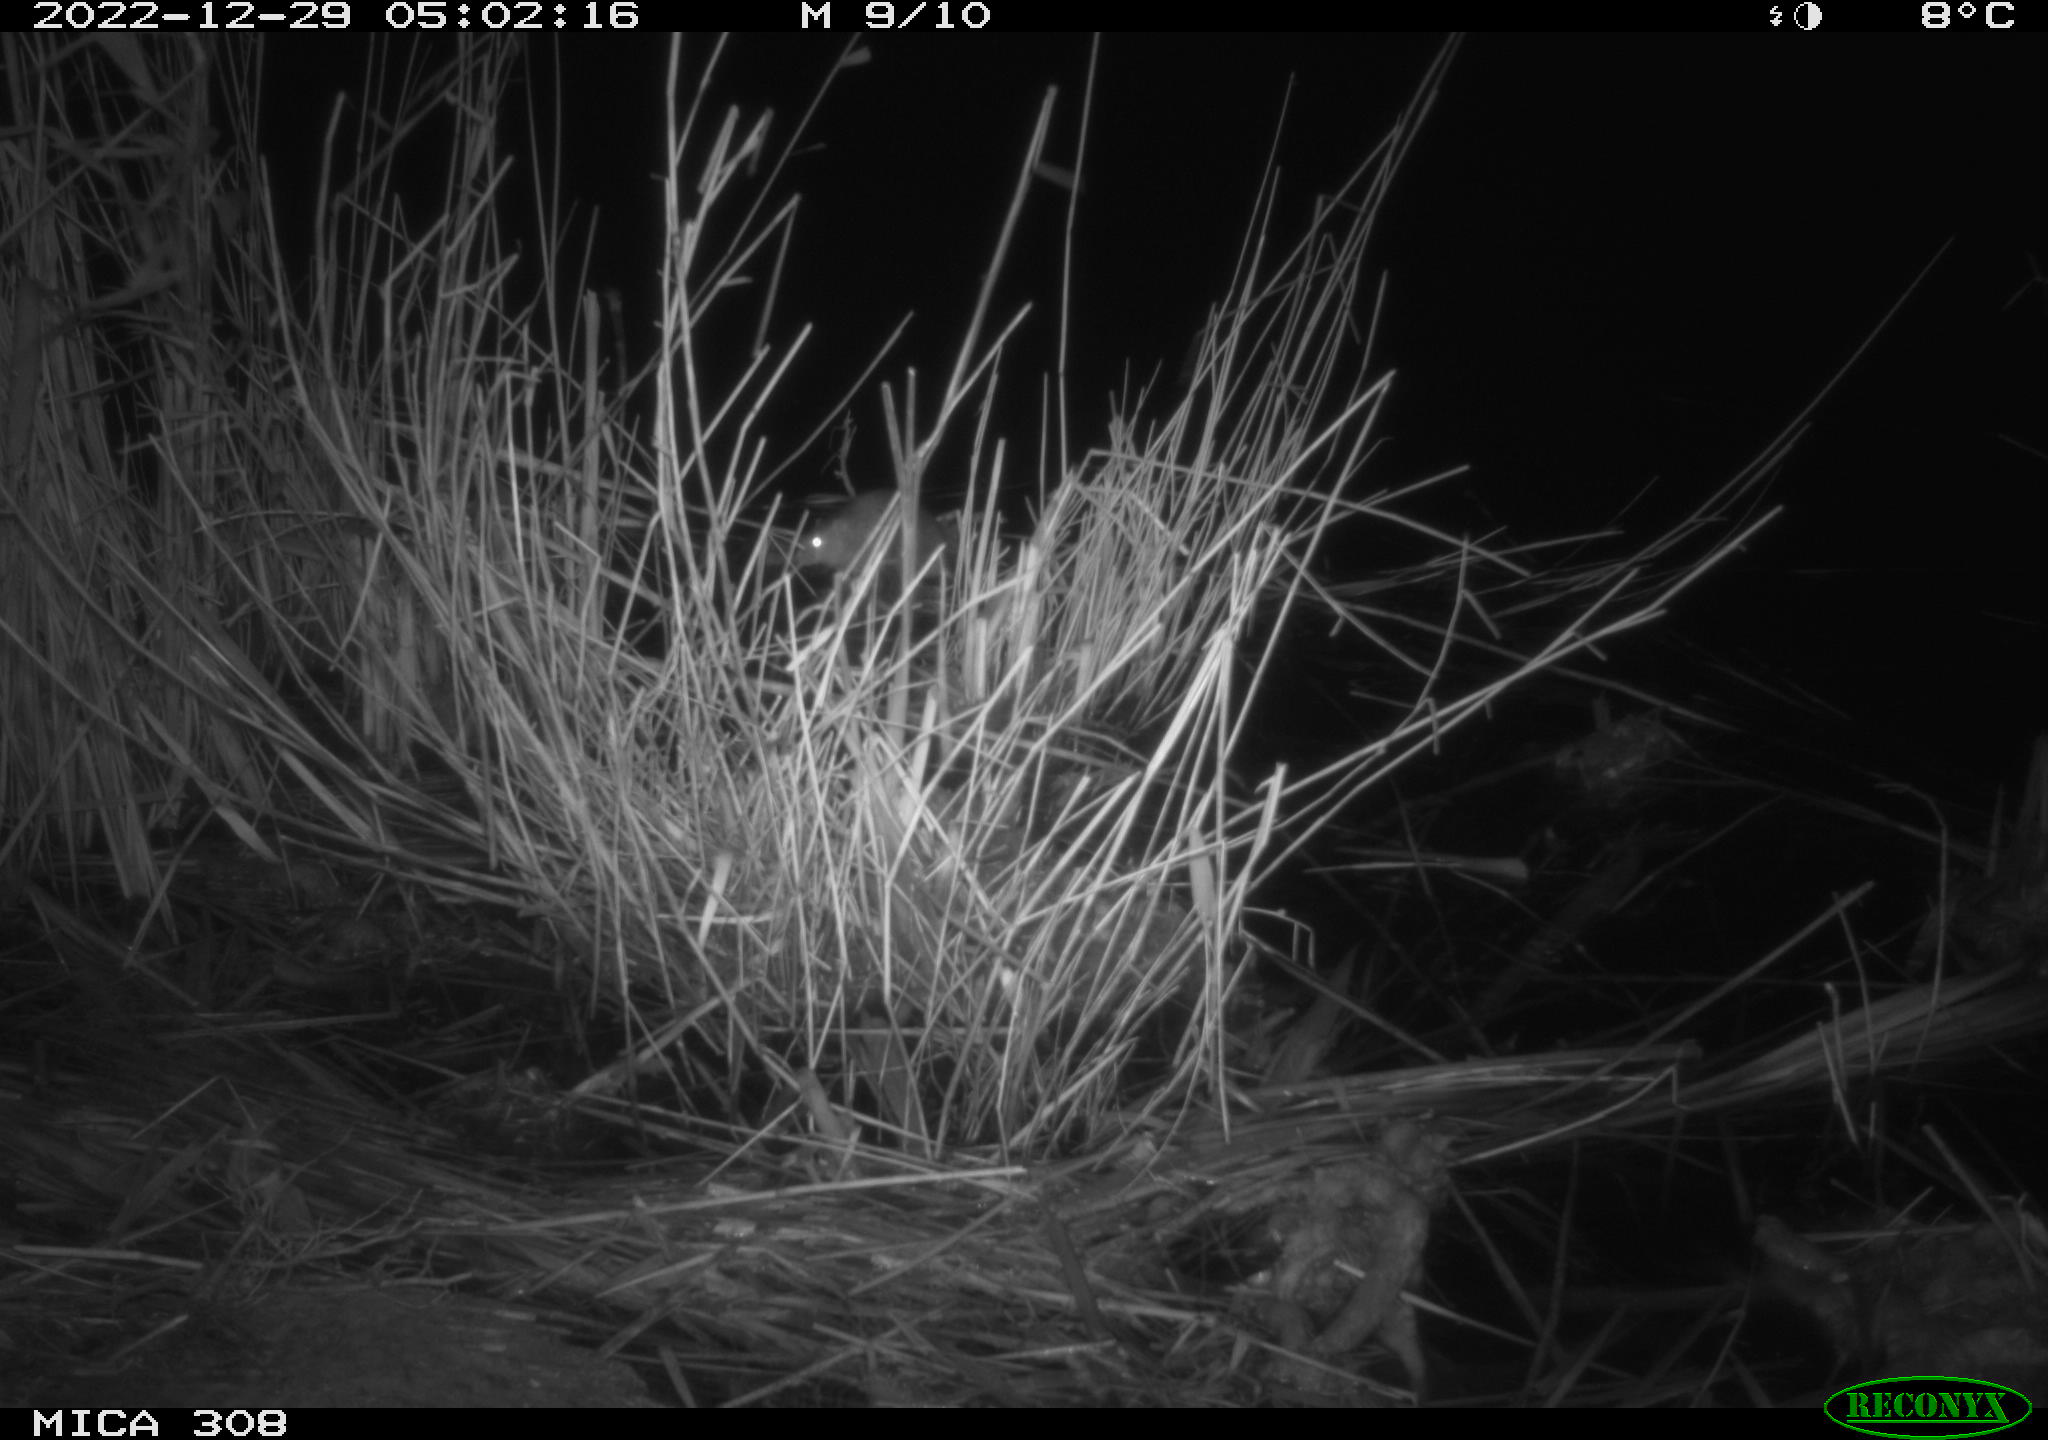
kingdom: Animalia
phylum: Chordata
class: Mammalia
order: Rodentia
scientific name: Rodentia
